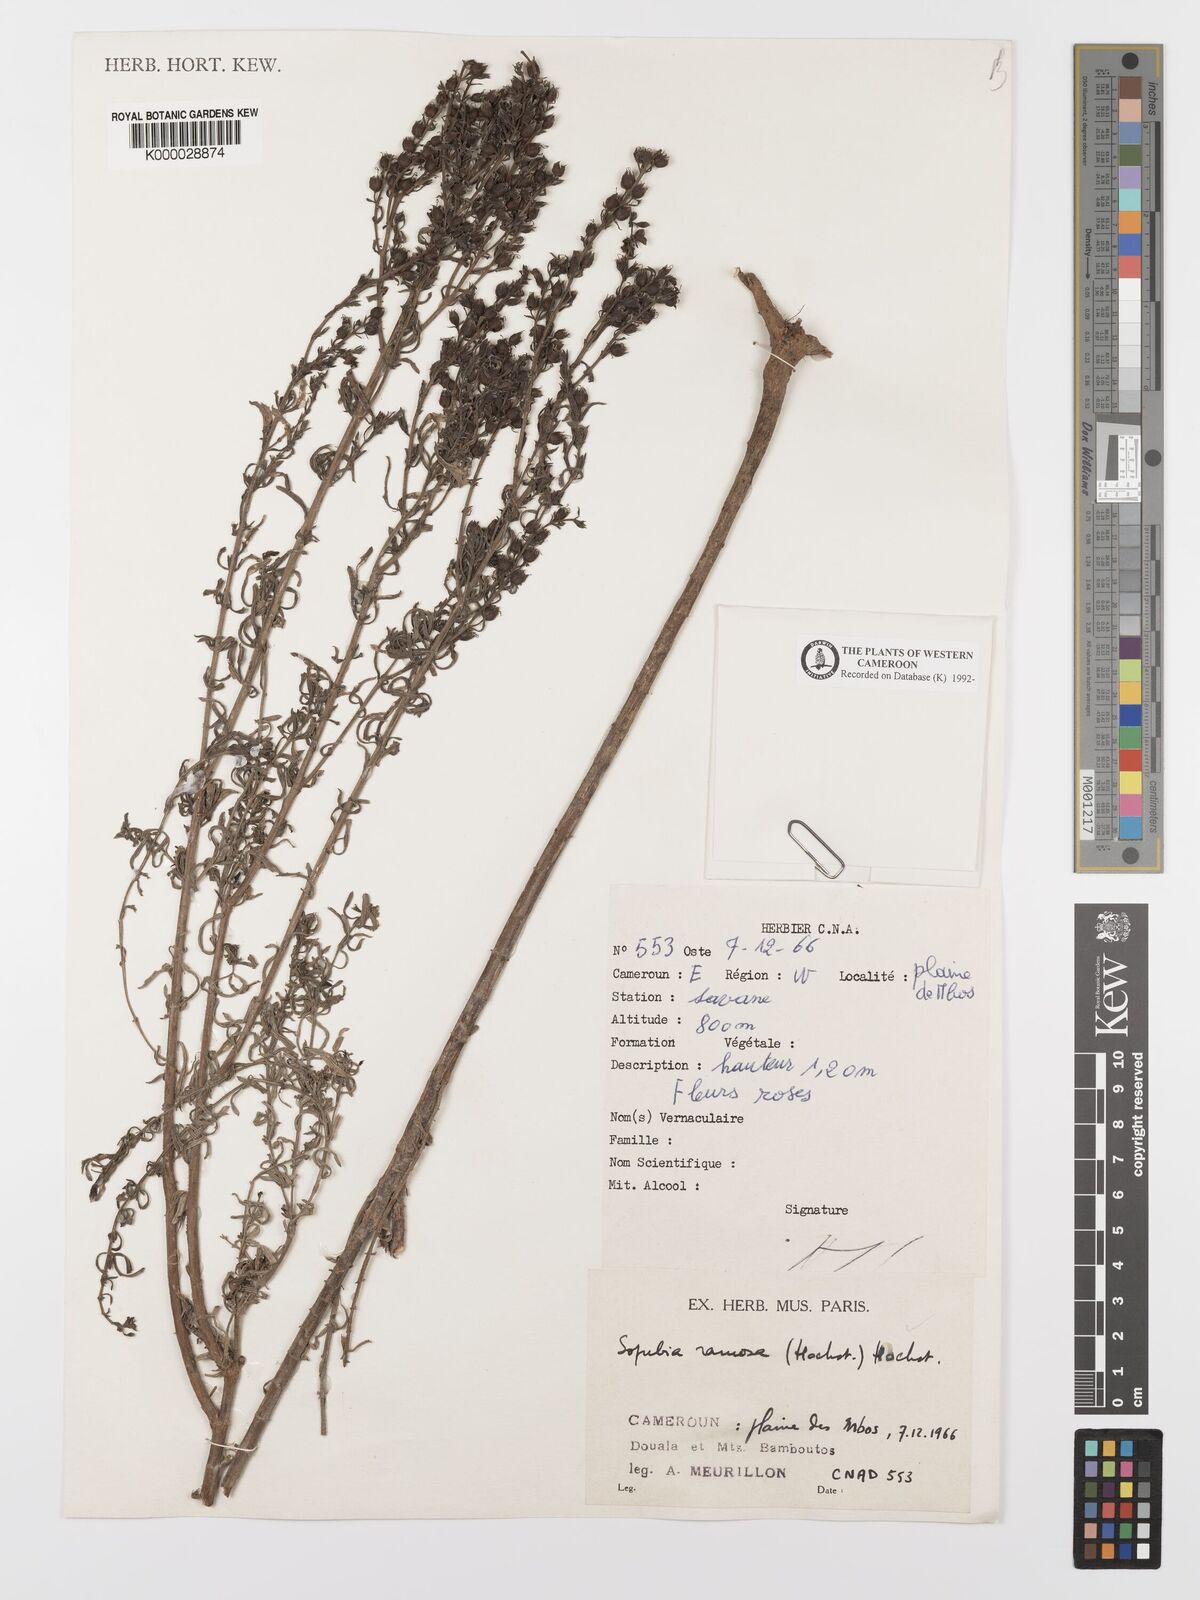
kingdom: Plantae
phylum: Tracheophyta
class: Magnoliopsida
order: Lamiales
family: Orobanchaceae
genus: Sopubia
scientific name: Sopubia ramosa
